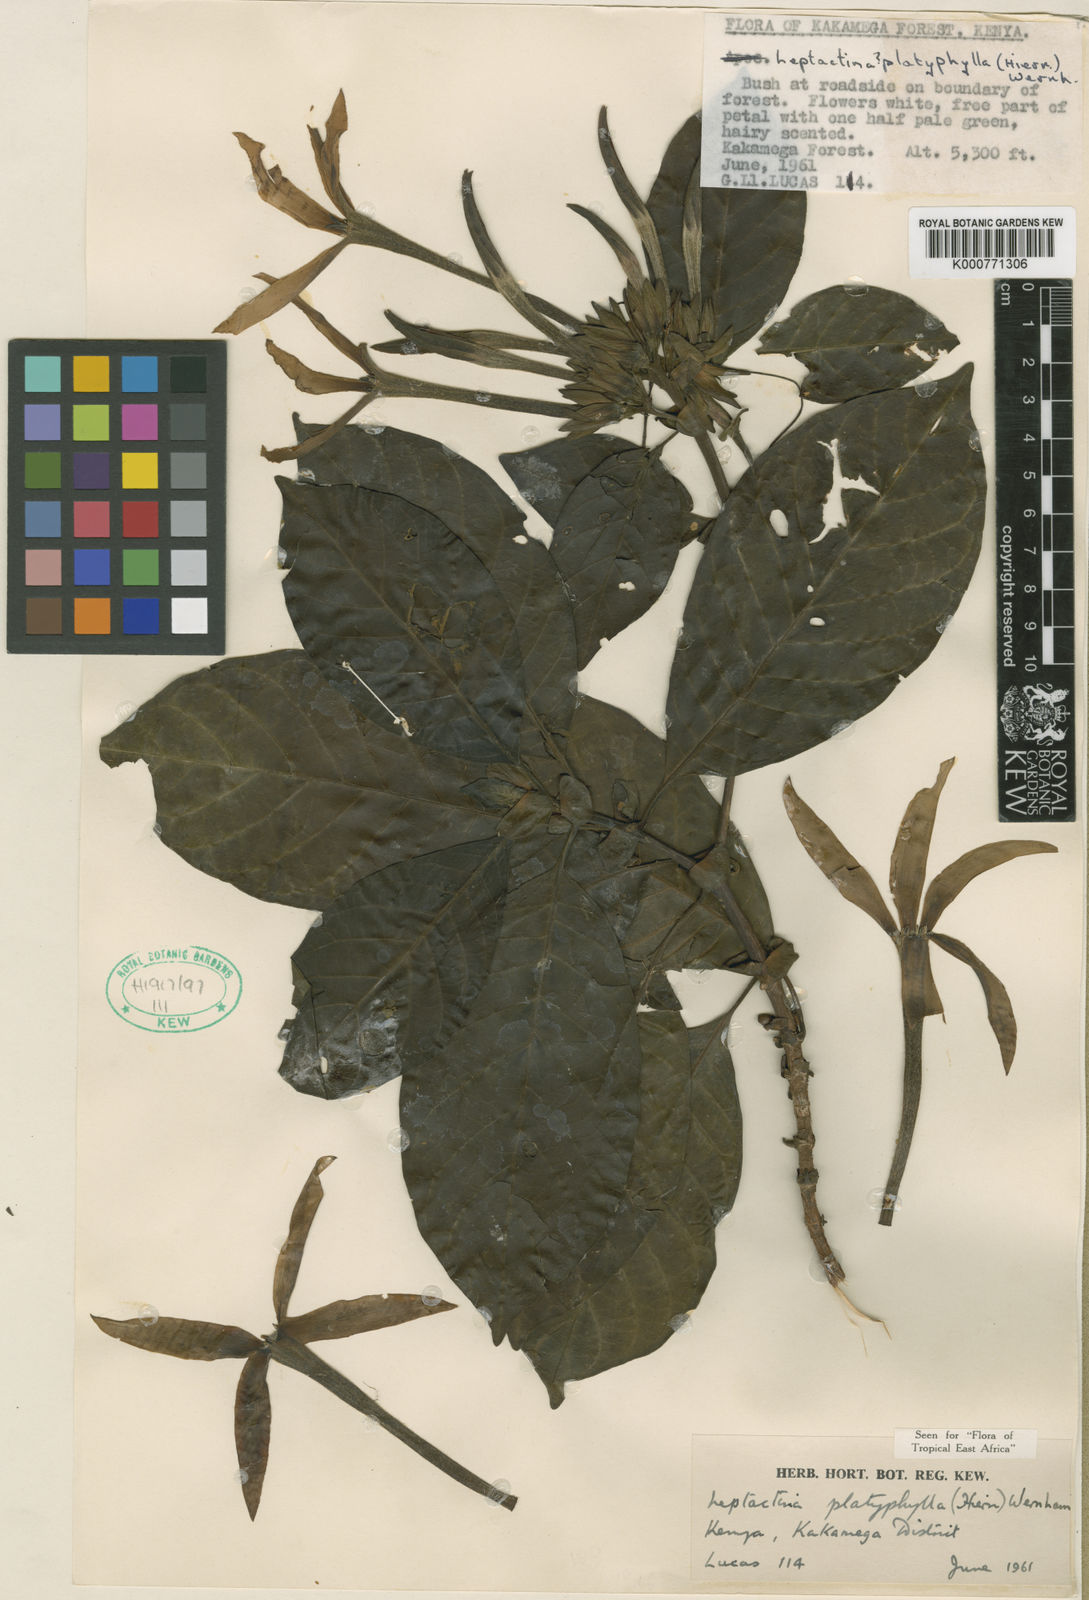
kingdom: Plantae
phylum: Tracheophyta
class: Magnoliopsida
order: Gentianales
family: Rubiaceae
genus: Leptactina
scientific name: Leptactina platyphylla
